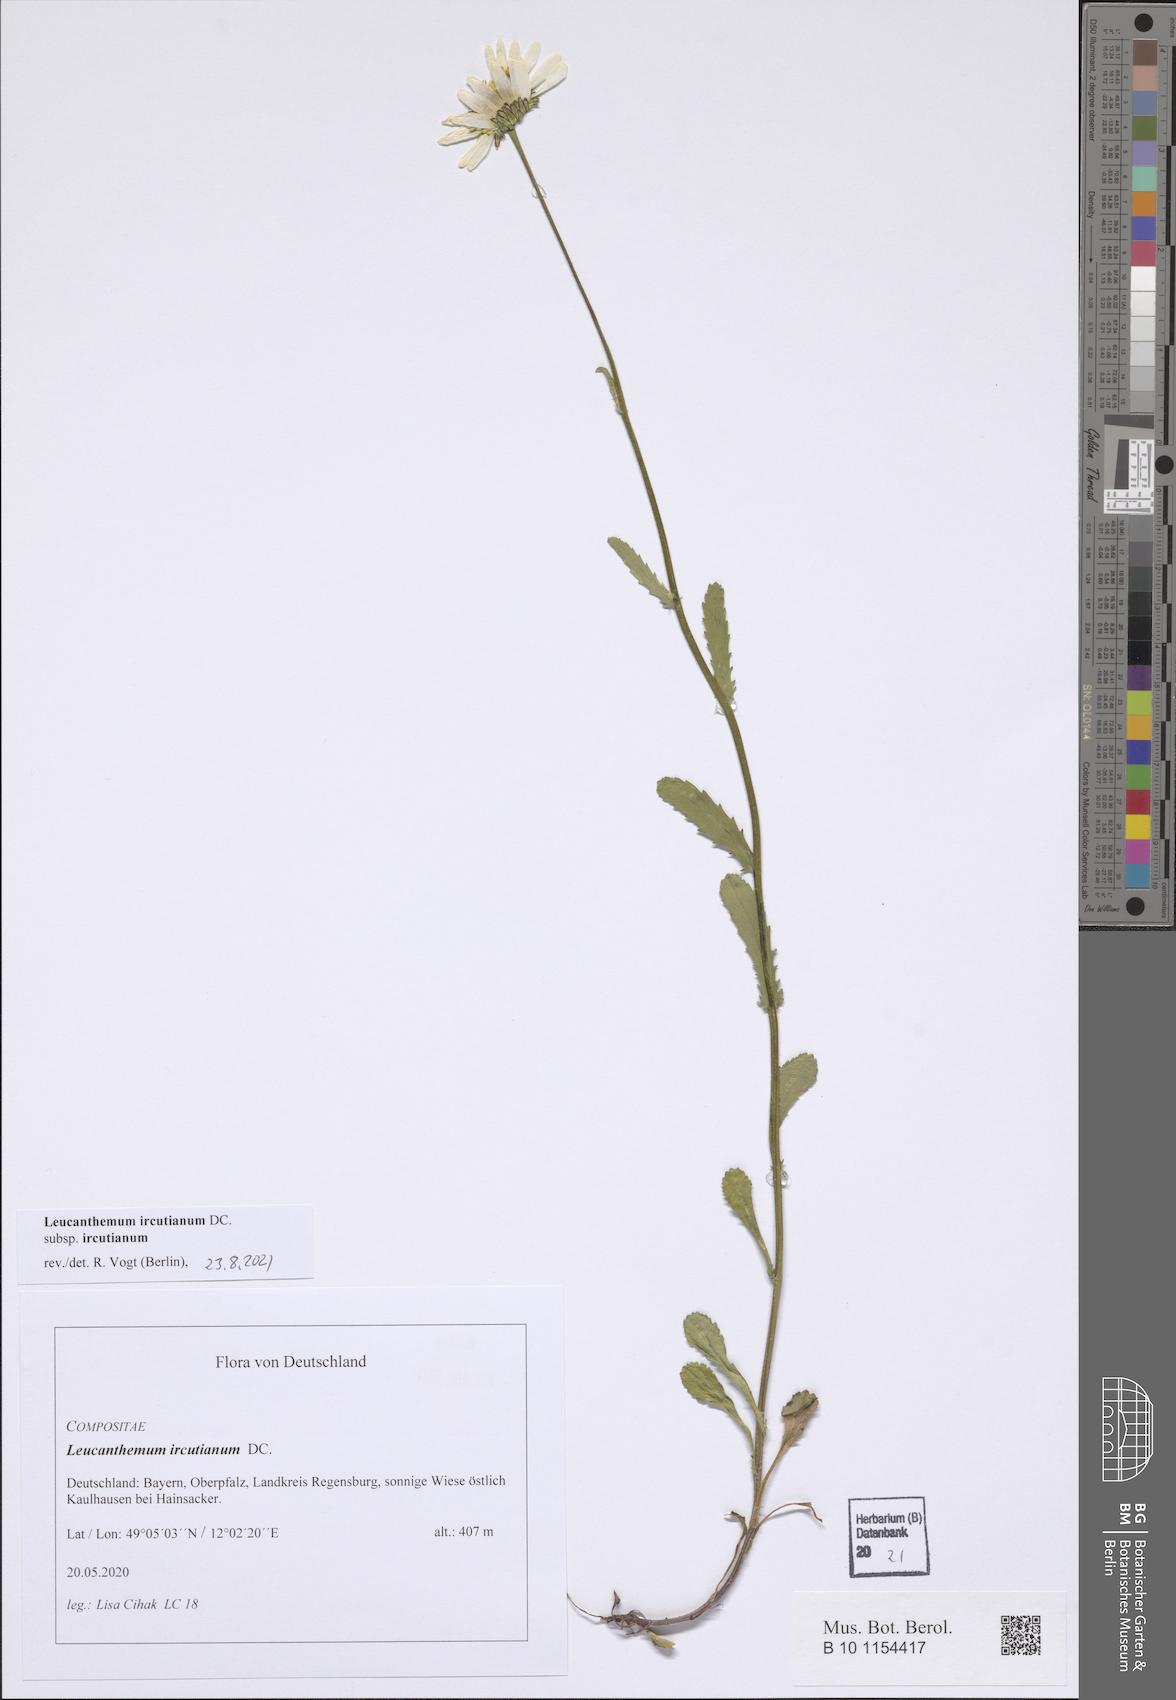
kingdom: Plantae
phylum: Tracheophyta
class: Magnoliopsida
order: Asterales
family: Asteraceae
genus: Leucanthemum
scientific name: Leucanthemum ircutianum
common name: Daisy
